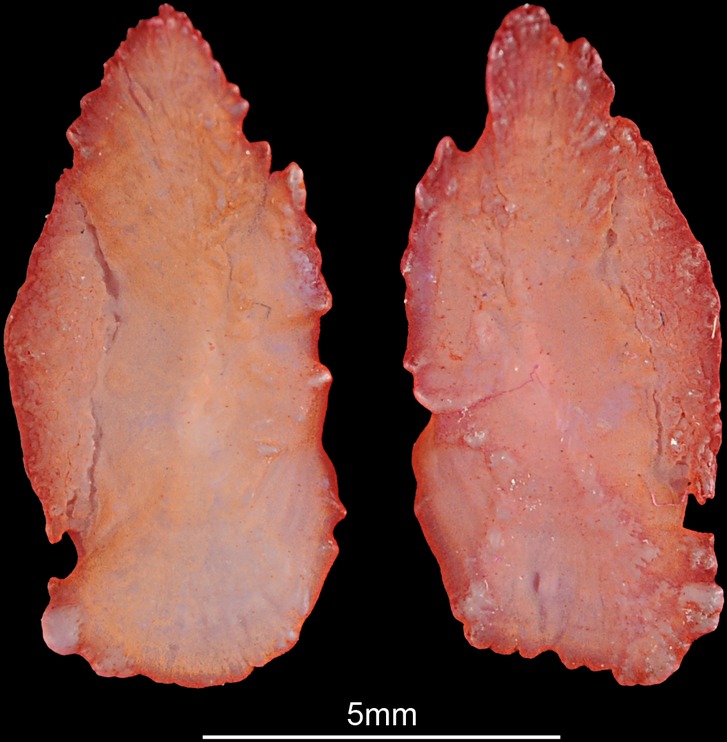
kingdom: Animalia
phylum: Chordata
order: Perciformes
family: Sparidae
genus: Sparodon
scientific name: Sparodon durbanensis
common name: White musselcracker
